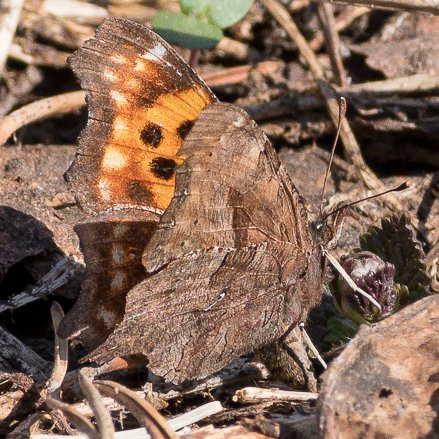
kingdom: Animalia
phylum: Arthropoda
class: Insecta
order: Lepidoptera
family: Nymphalidae
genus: Polygonia
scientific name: Polygonia satyrus
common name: Satyr Comma
